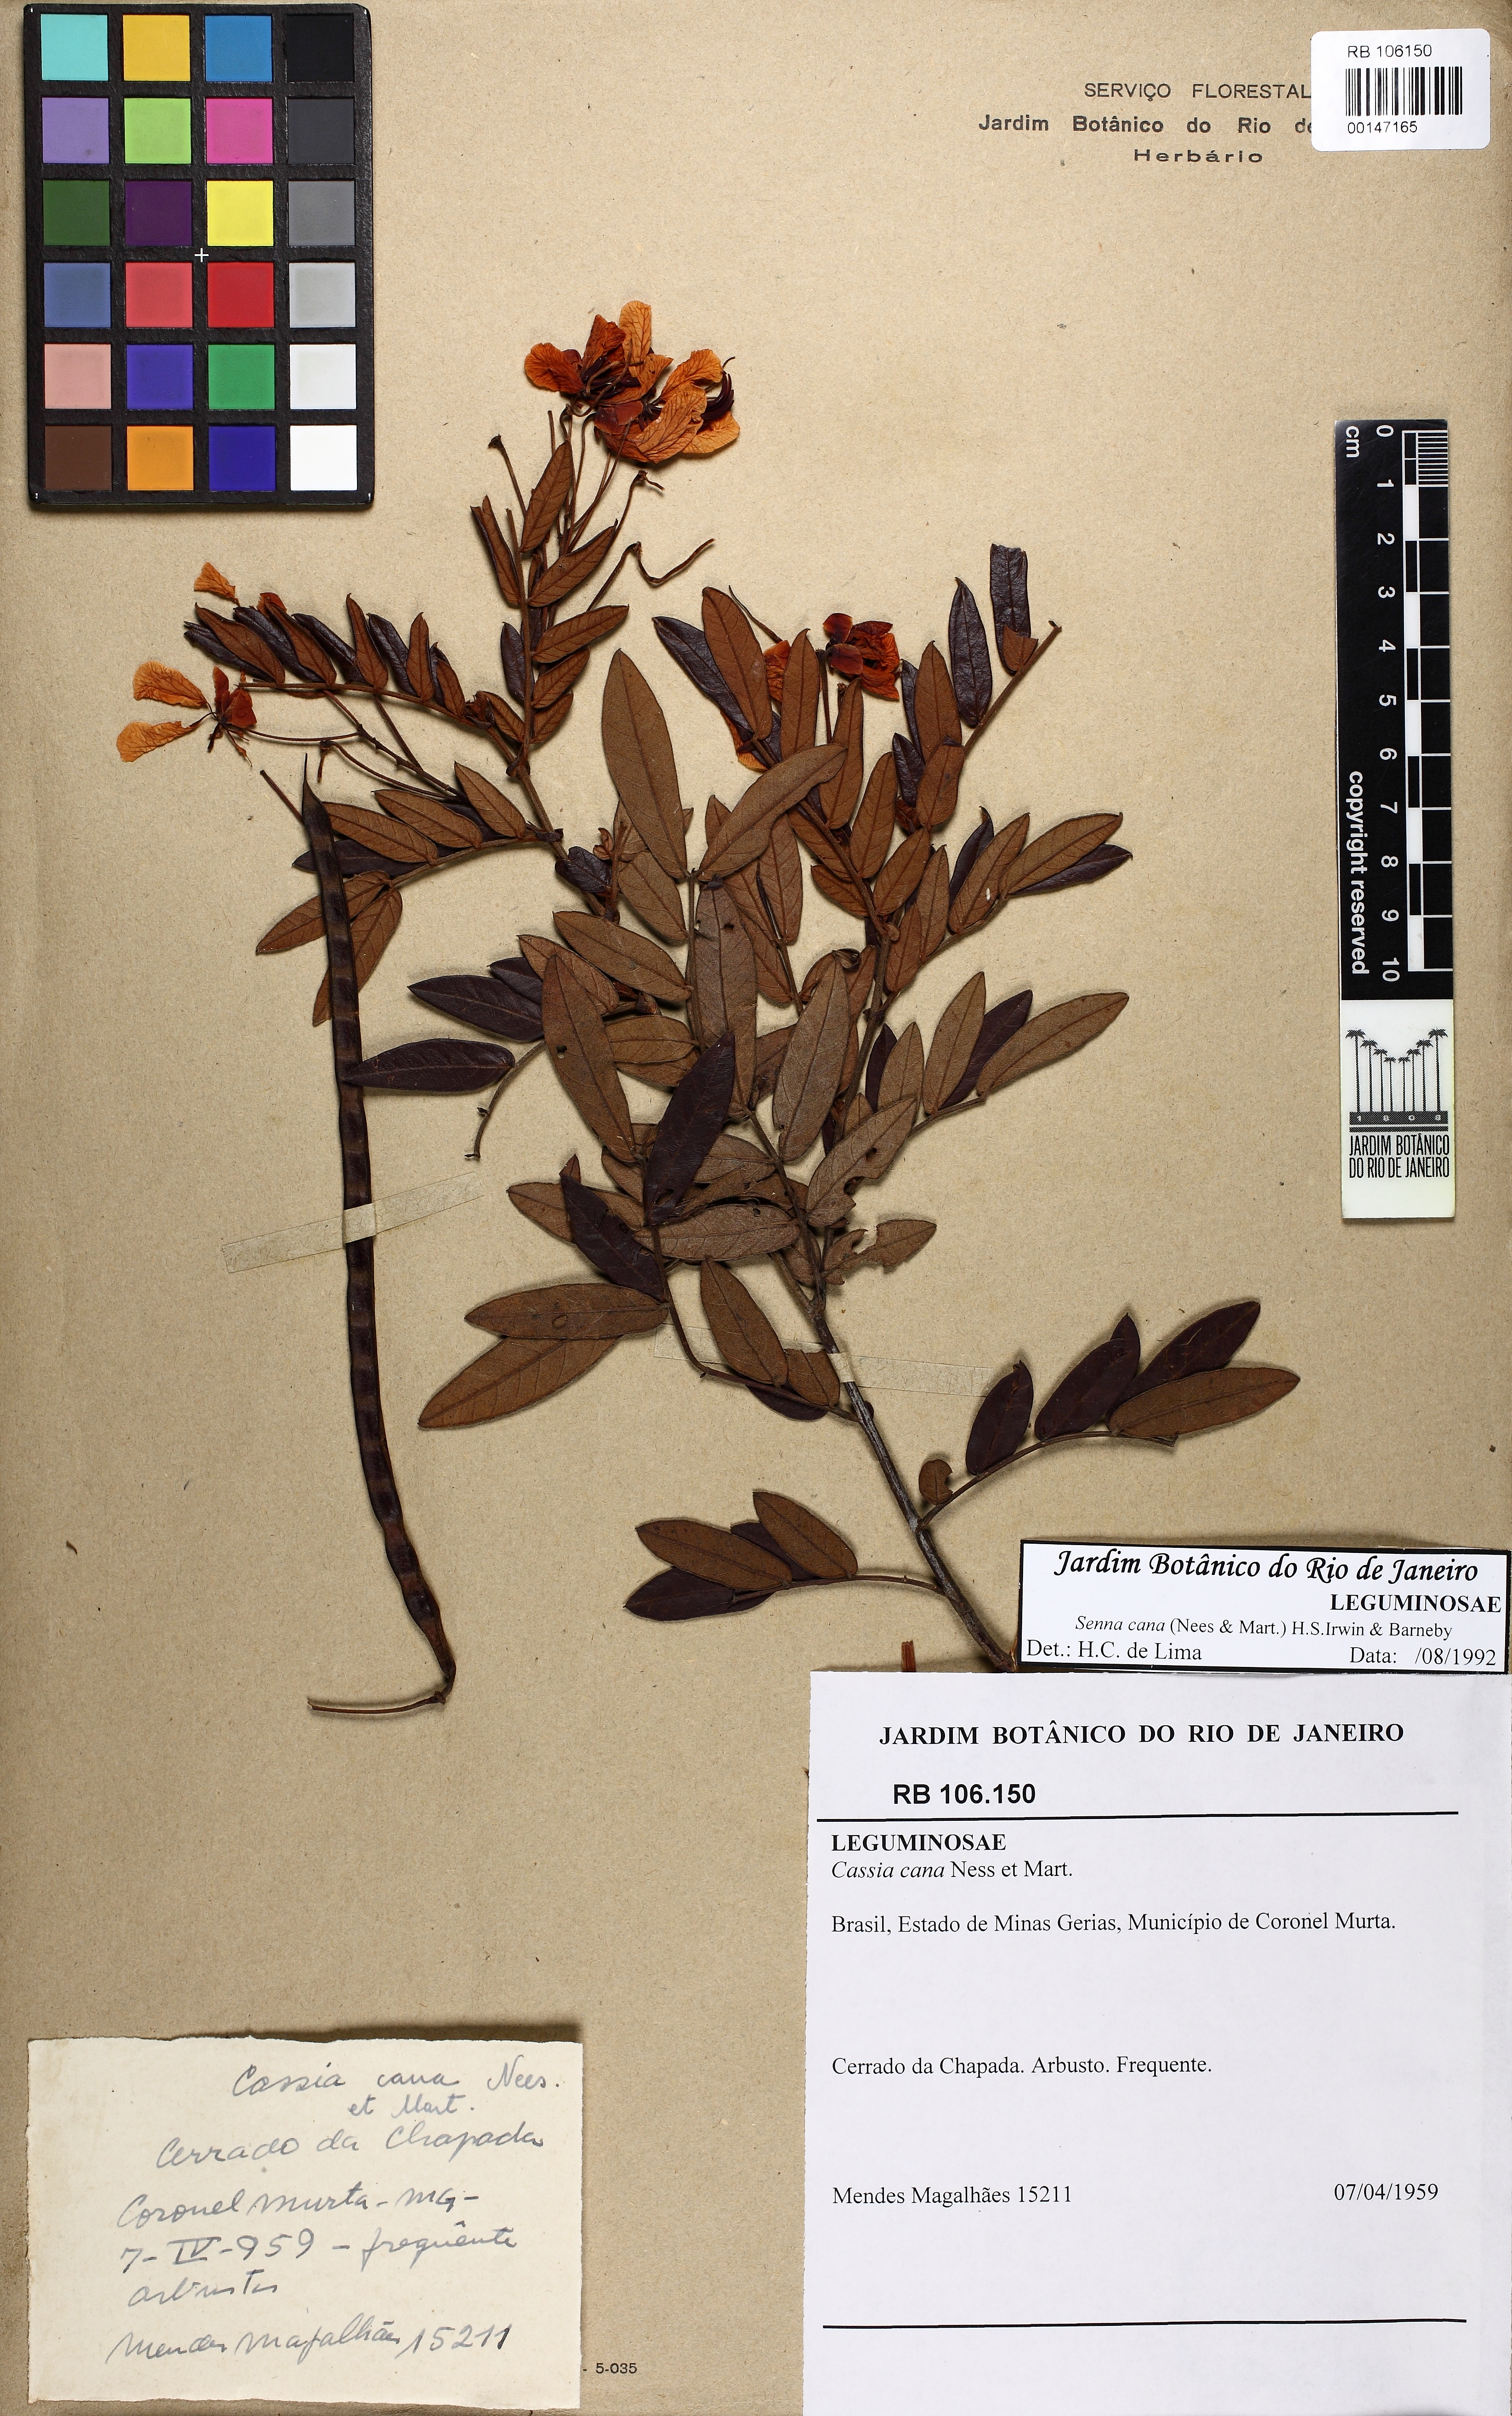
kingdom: Plantae
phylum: Tracheophyta
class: Magnoliopsida
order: Fabales
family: Fabaceae
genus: Senna
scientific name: Senna cana
